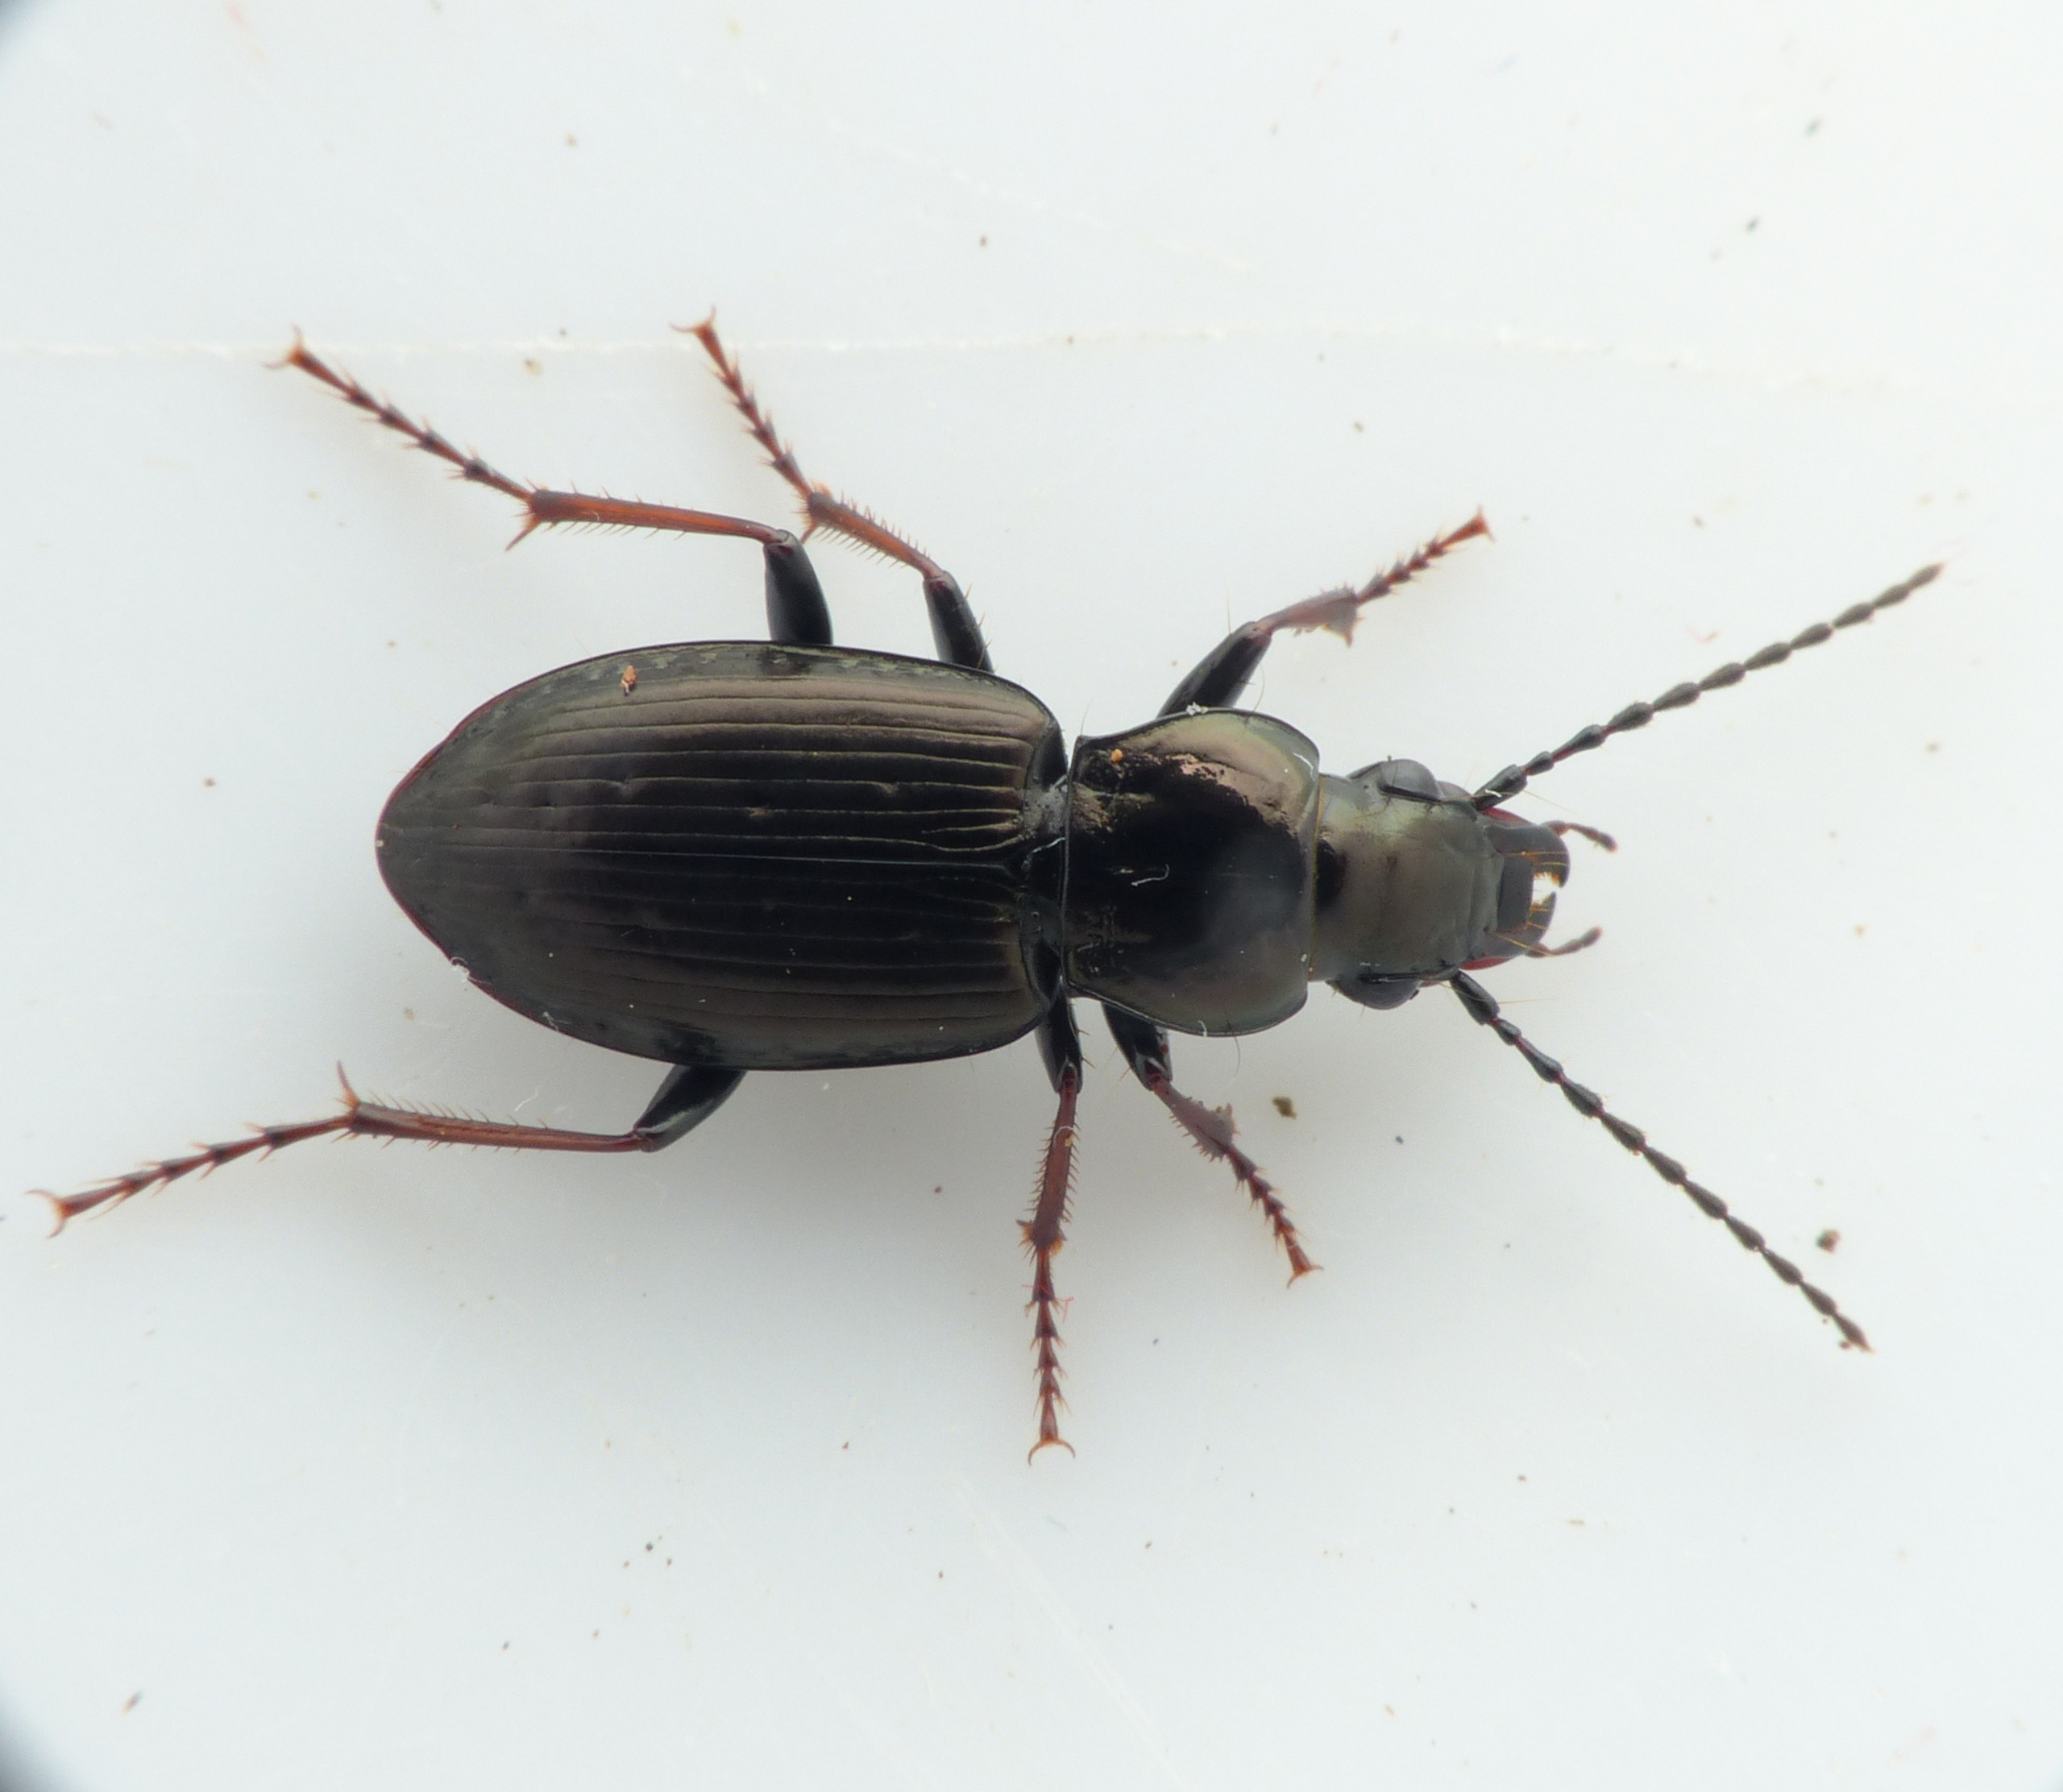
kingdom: Animalia
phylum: Arthropoda
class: Insecta
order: Coleoptera
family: Carabidae
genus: Pterostichus
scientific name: Pterostichus oblongopunctatus
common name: Bronzejordløber
